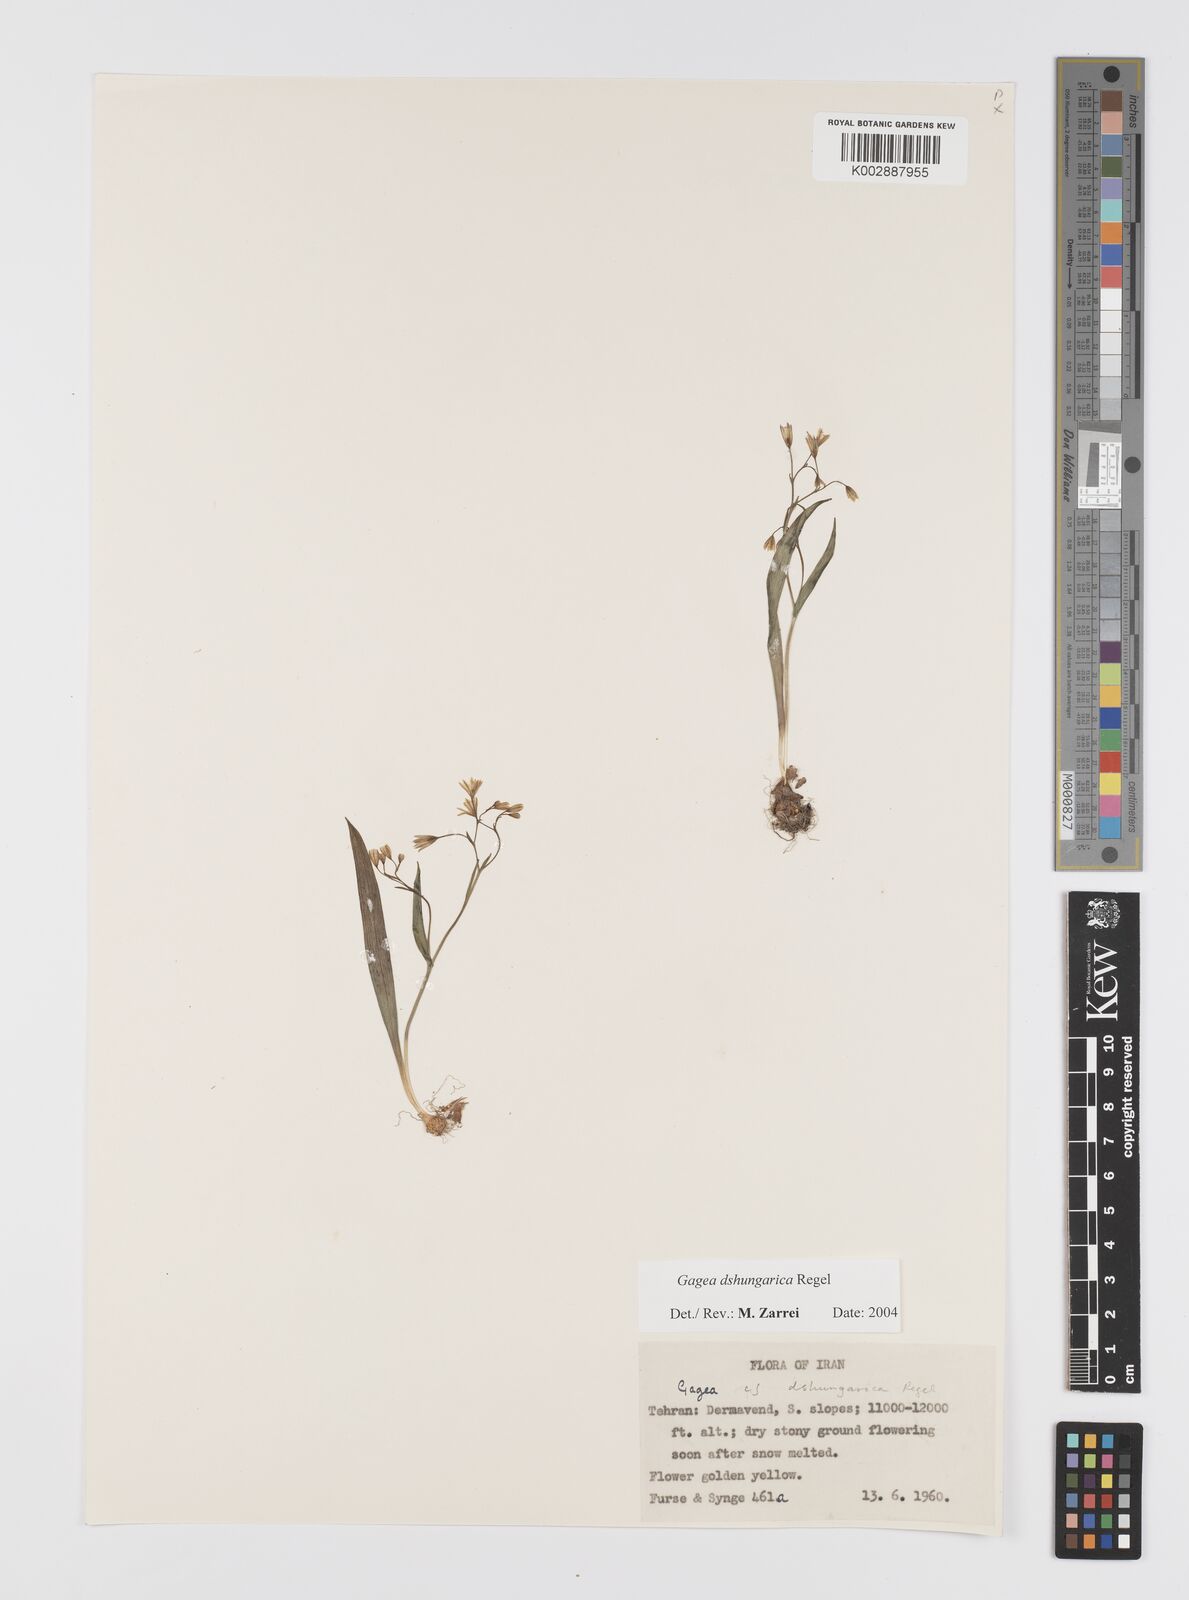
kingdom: Plantae
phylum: Tracheophyta
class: Liliopsida
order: Liliales
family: Liliaceae
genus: Gagea
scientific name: Gagea dschungarica
